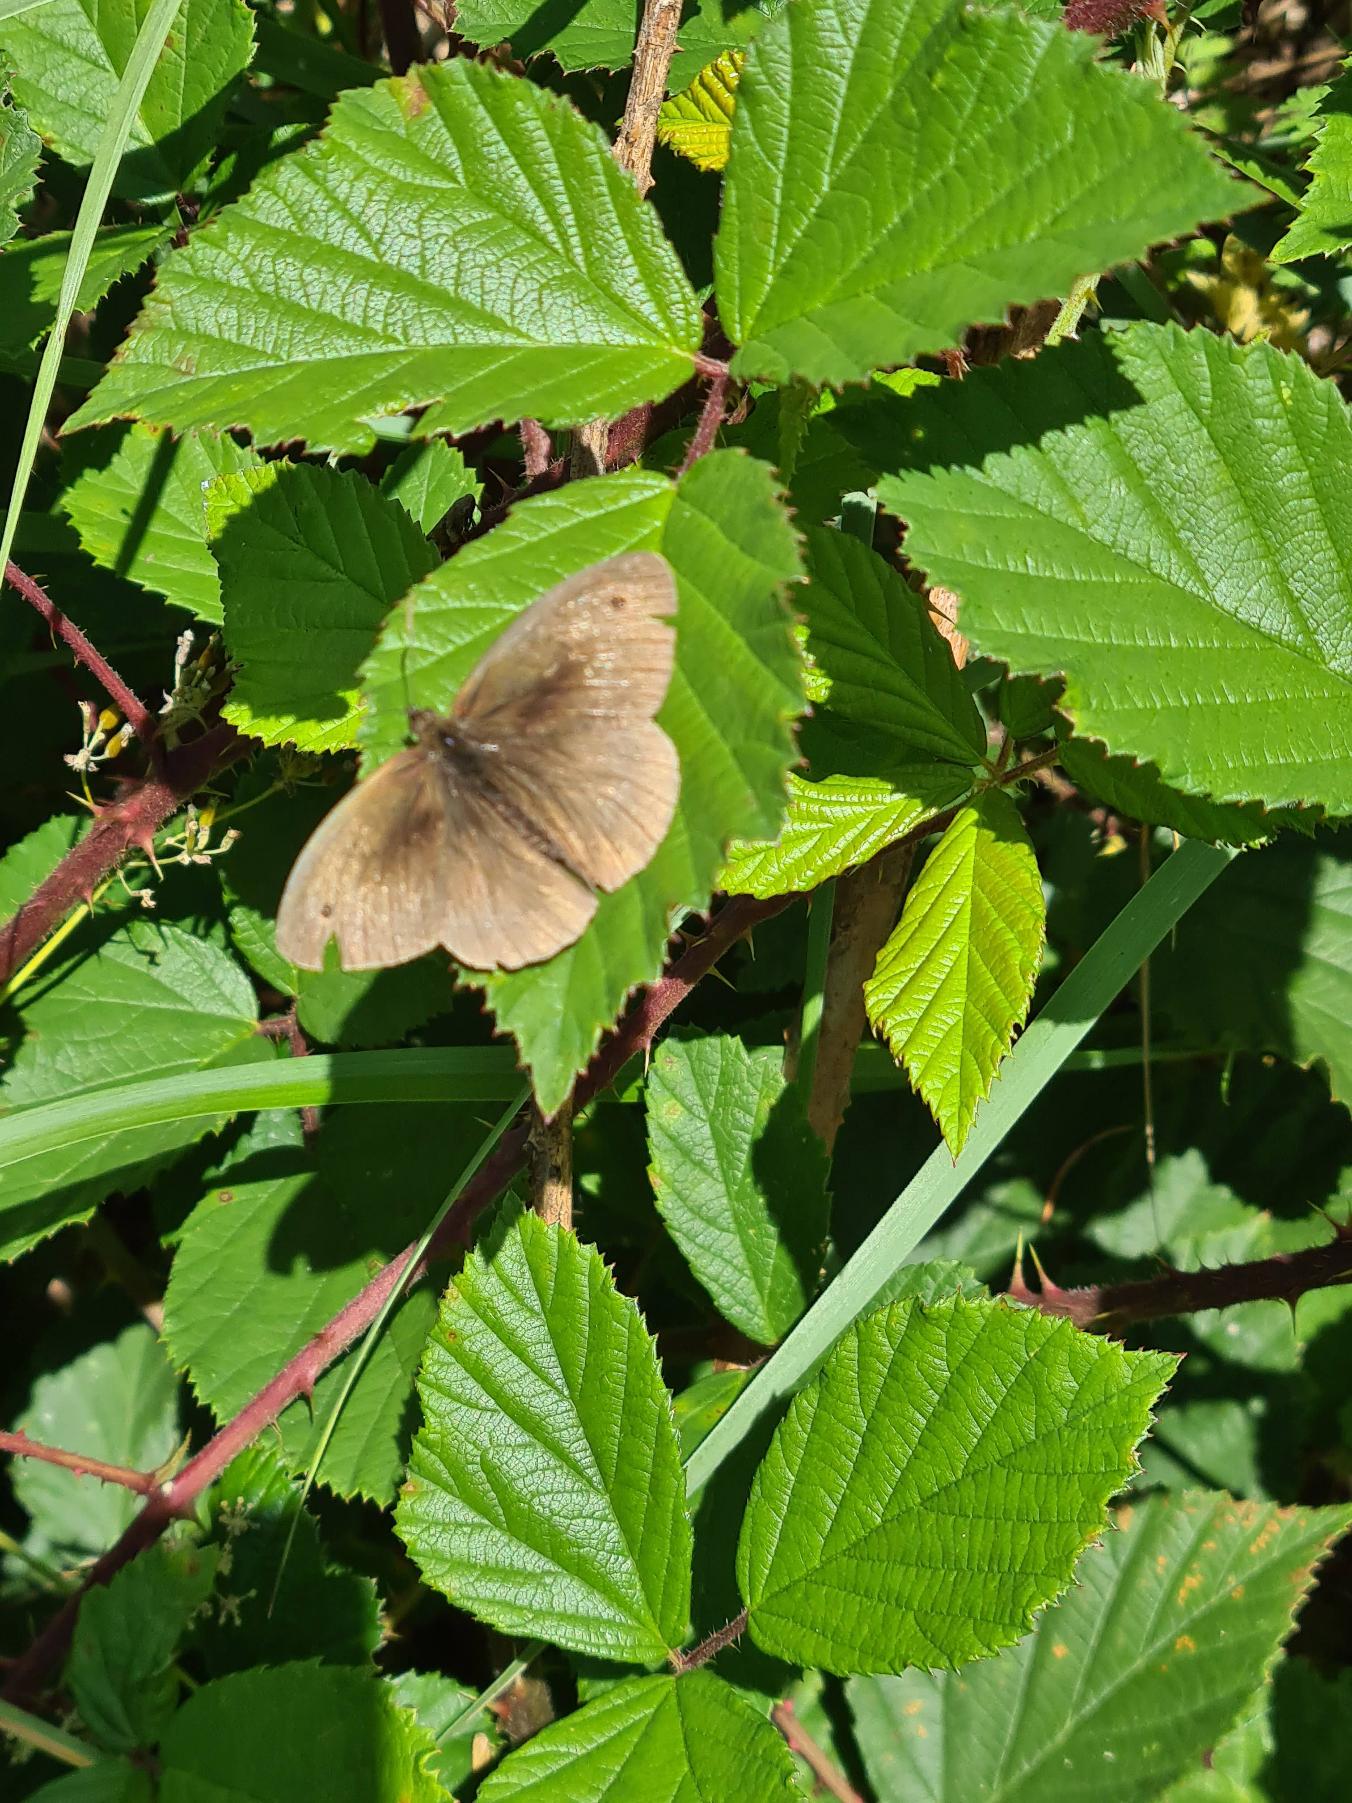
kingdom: Animalia
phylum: Arthropoda
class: Insecta
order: Lepidoptera
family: Nymphalidae
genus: Maniola
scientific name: Maniola jurtina
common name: Græsrandøje
